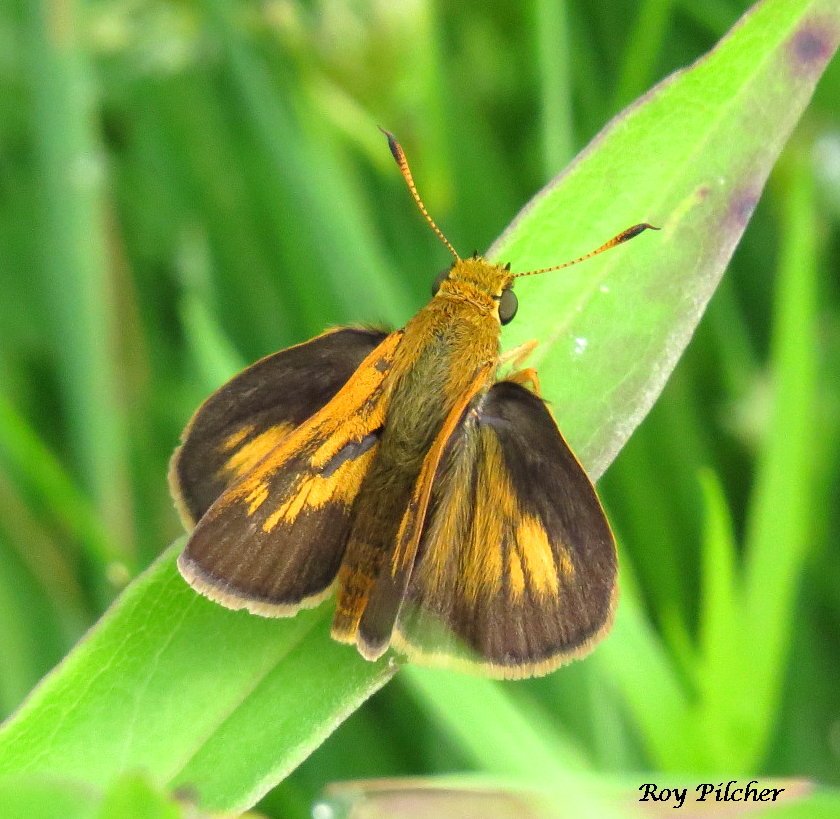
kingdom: Animalia
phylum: Arthropoda
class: Insecta
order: Lepidoptera
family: Hesperiidae
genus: Euphyes
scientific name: Euphyes dion
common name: Dion Skipper
